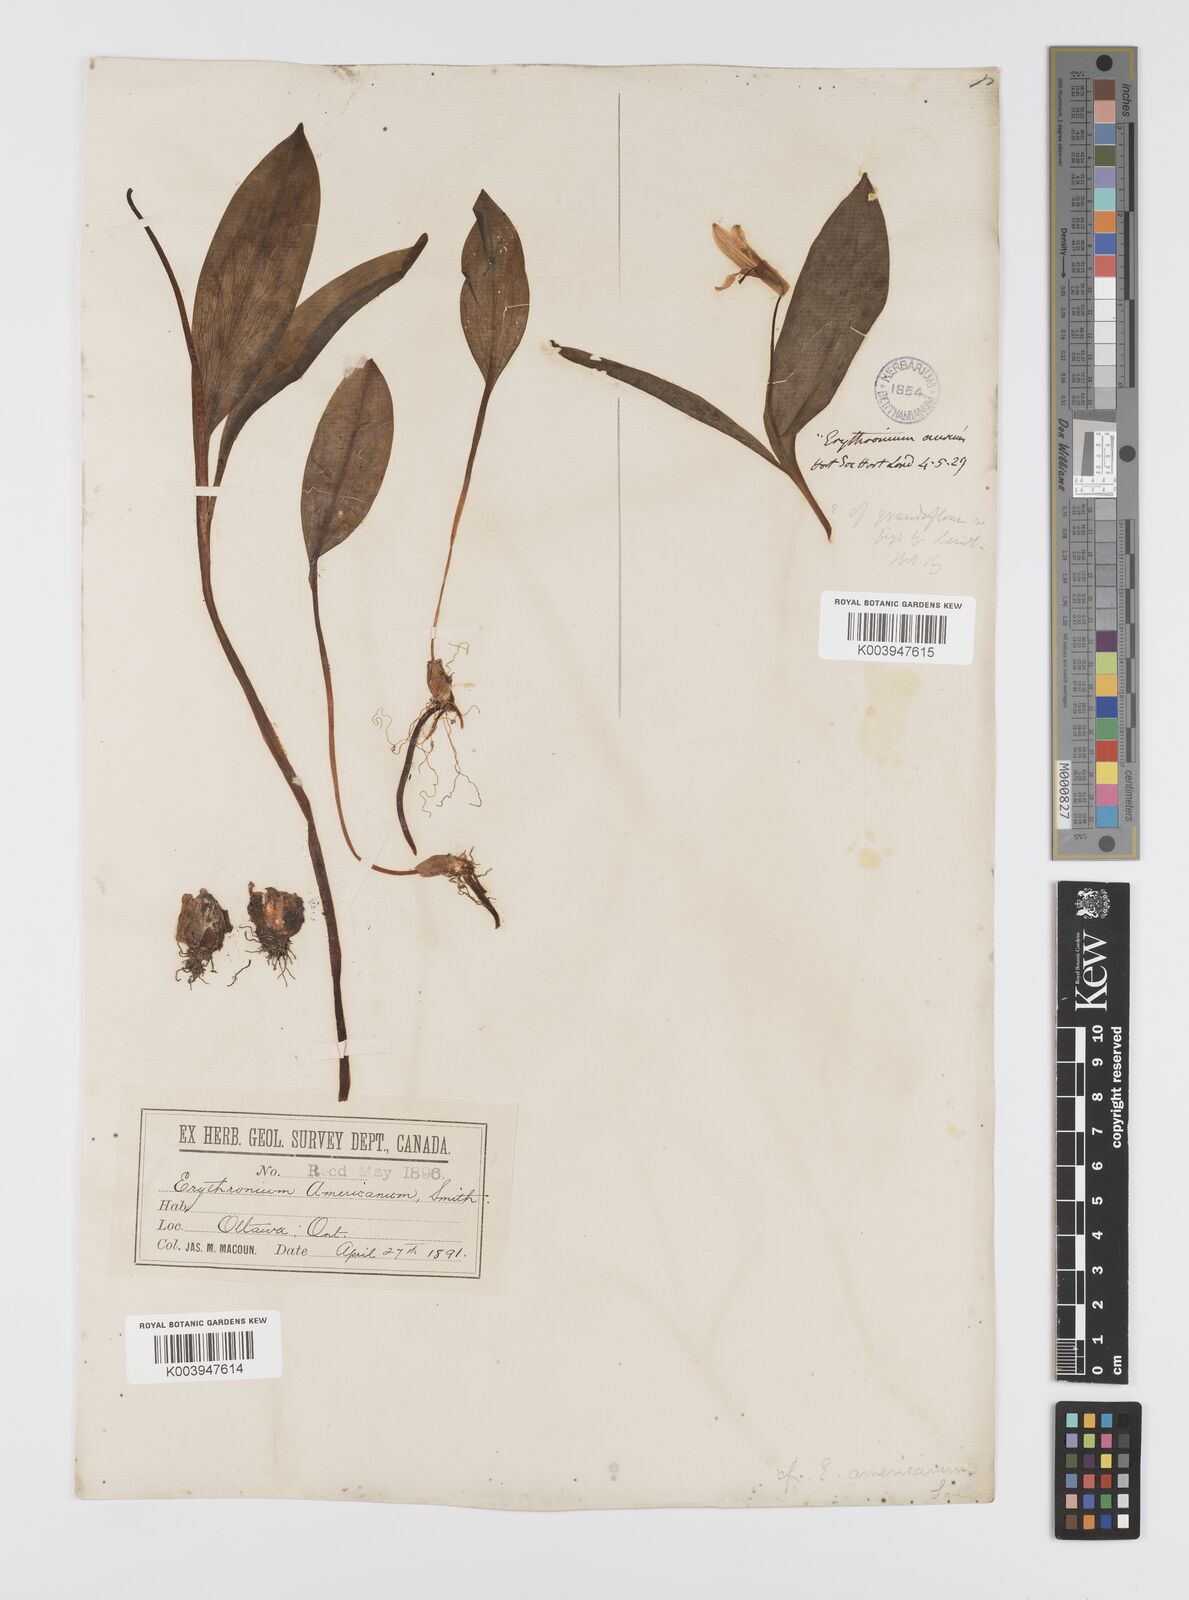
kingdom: Plantae
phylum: Tracheophyta
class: Liliopsida
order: Liliales
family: Liliaceae
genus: Erythronium
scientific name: Erythronium grandiflorum
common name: Avalanche-lily
